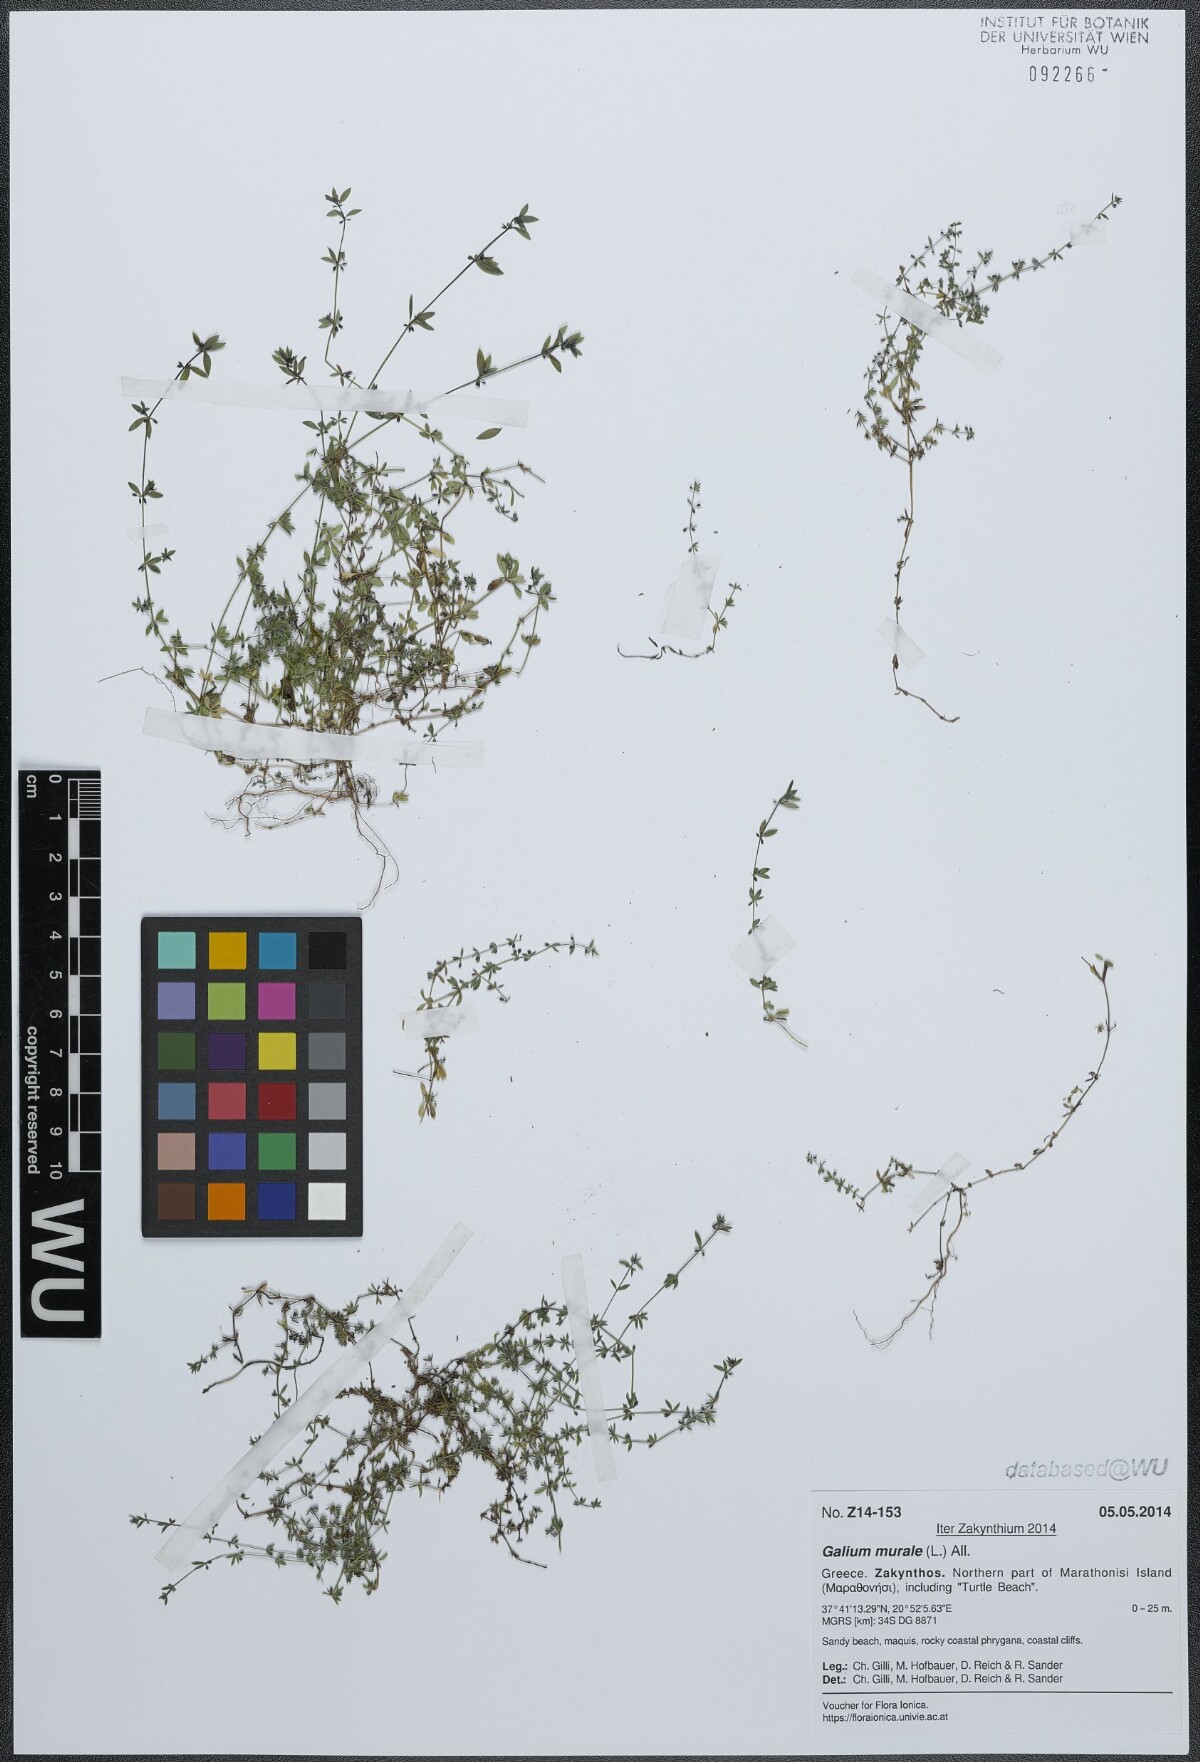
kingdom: Plantae
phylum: Tracheophyta
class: Magnoliopsida
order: Gentianales
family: Rubiaceae
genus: Galium
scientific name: Galium murale
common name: Yellow wall bedstraw
